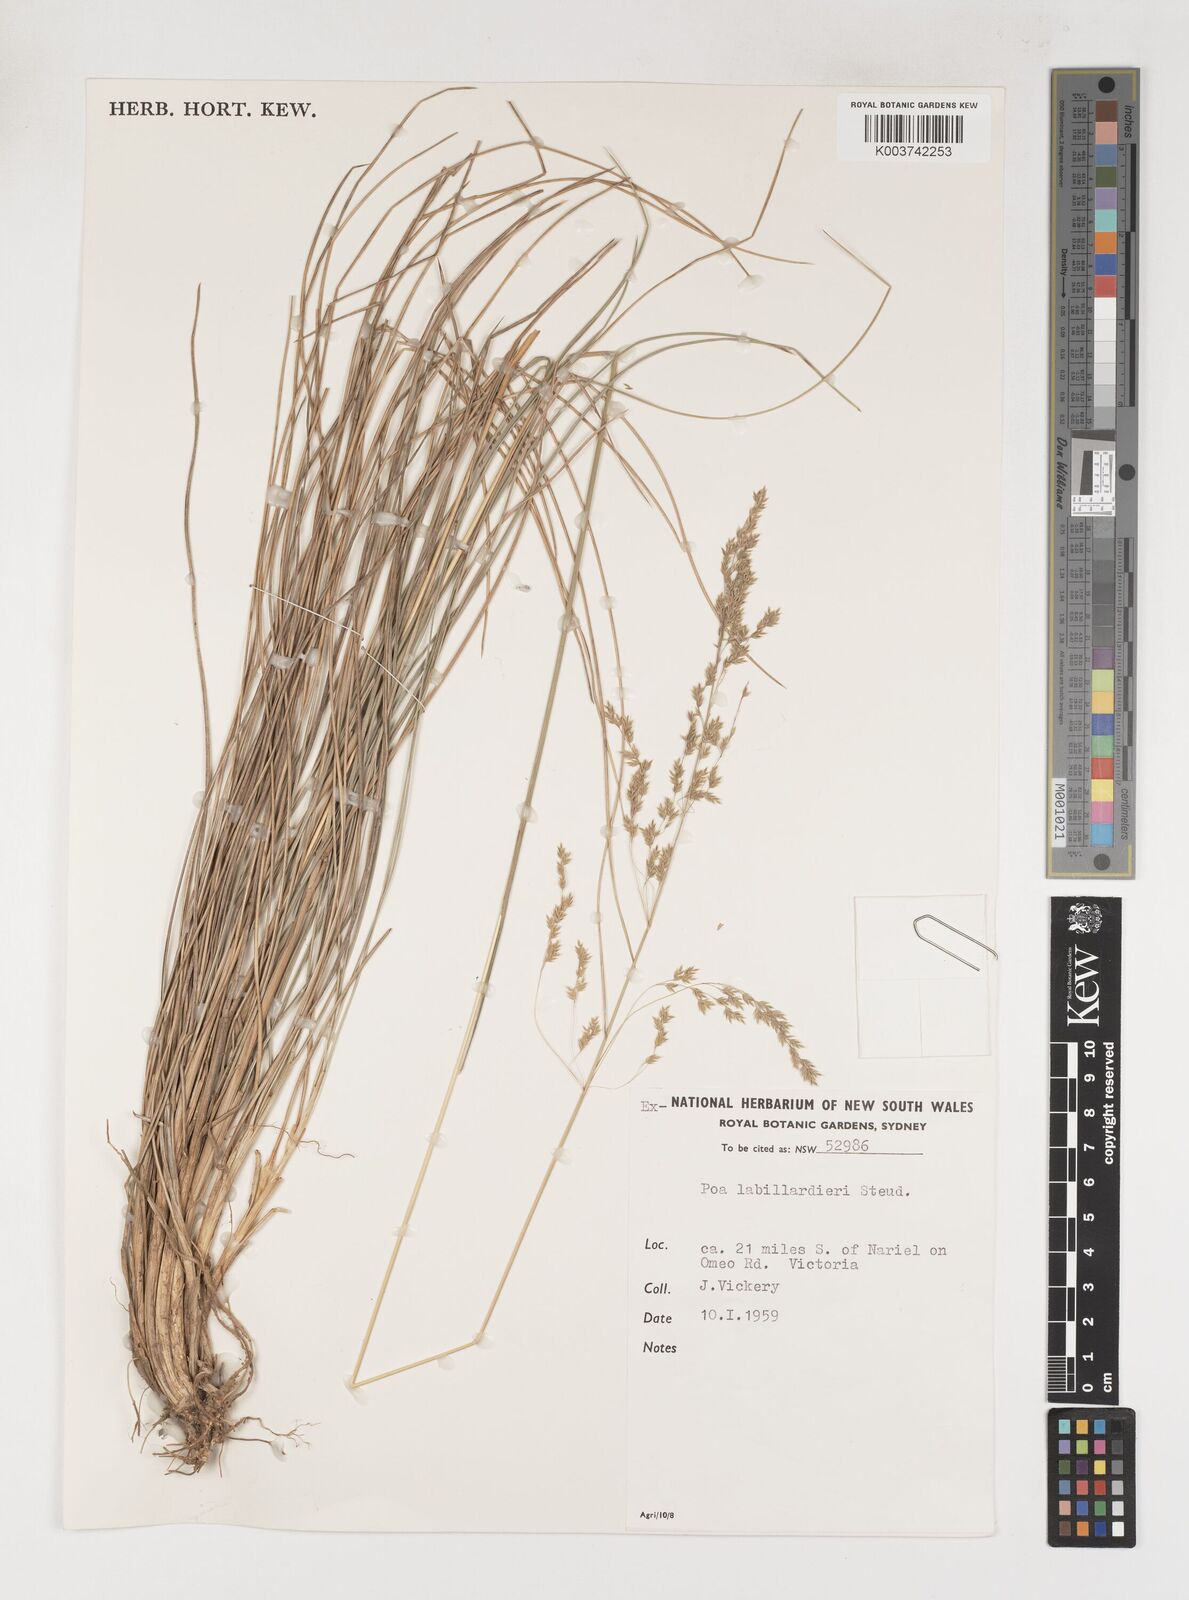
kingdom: Plantae
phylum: Tracheophyta
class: Liliopsida
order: Poales
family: Poaceae
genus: Poa
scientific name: Poa labillardierei
